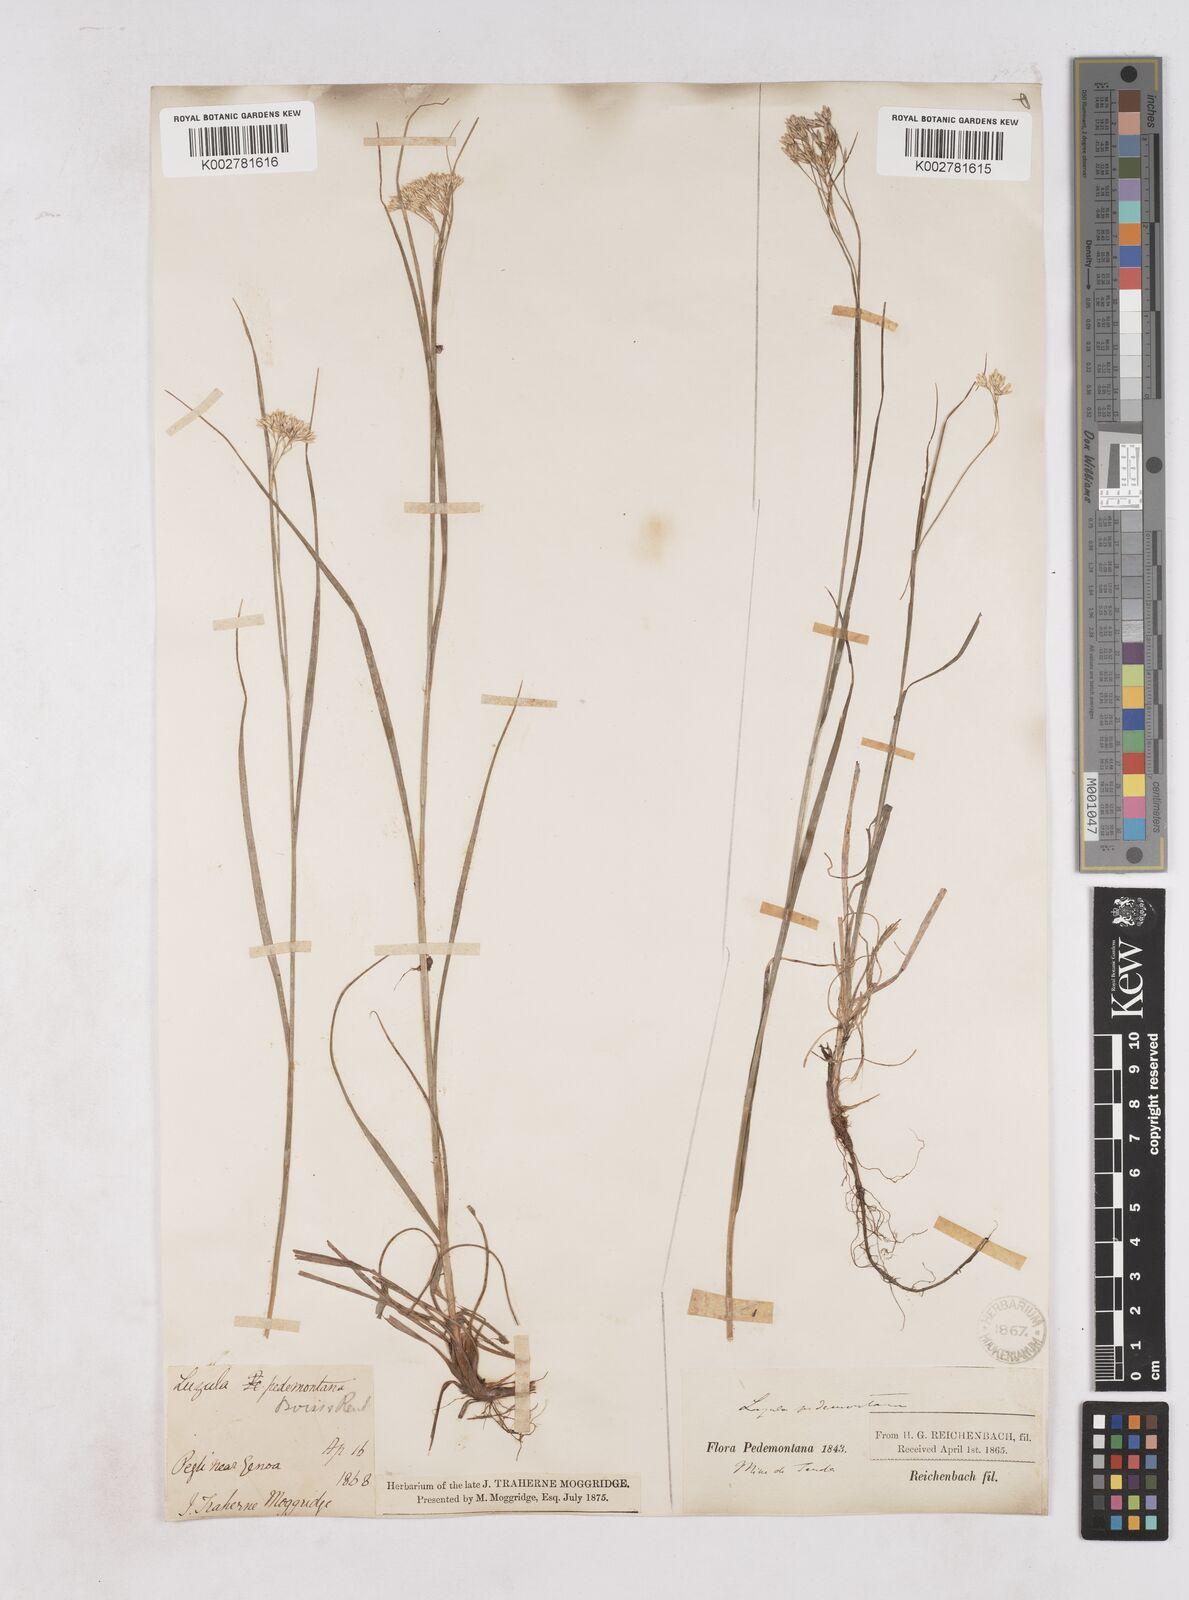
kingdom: Plantae
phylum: Tracheophyta
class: Liliopsida
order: Poales
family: Juncaceae
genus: Luzula
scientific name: Luzula pedemontana
